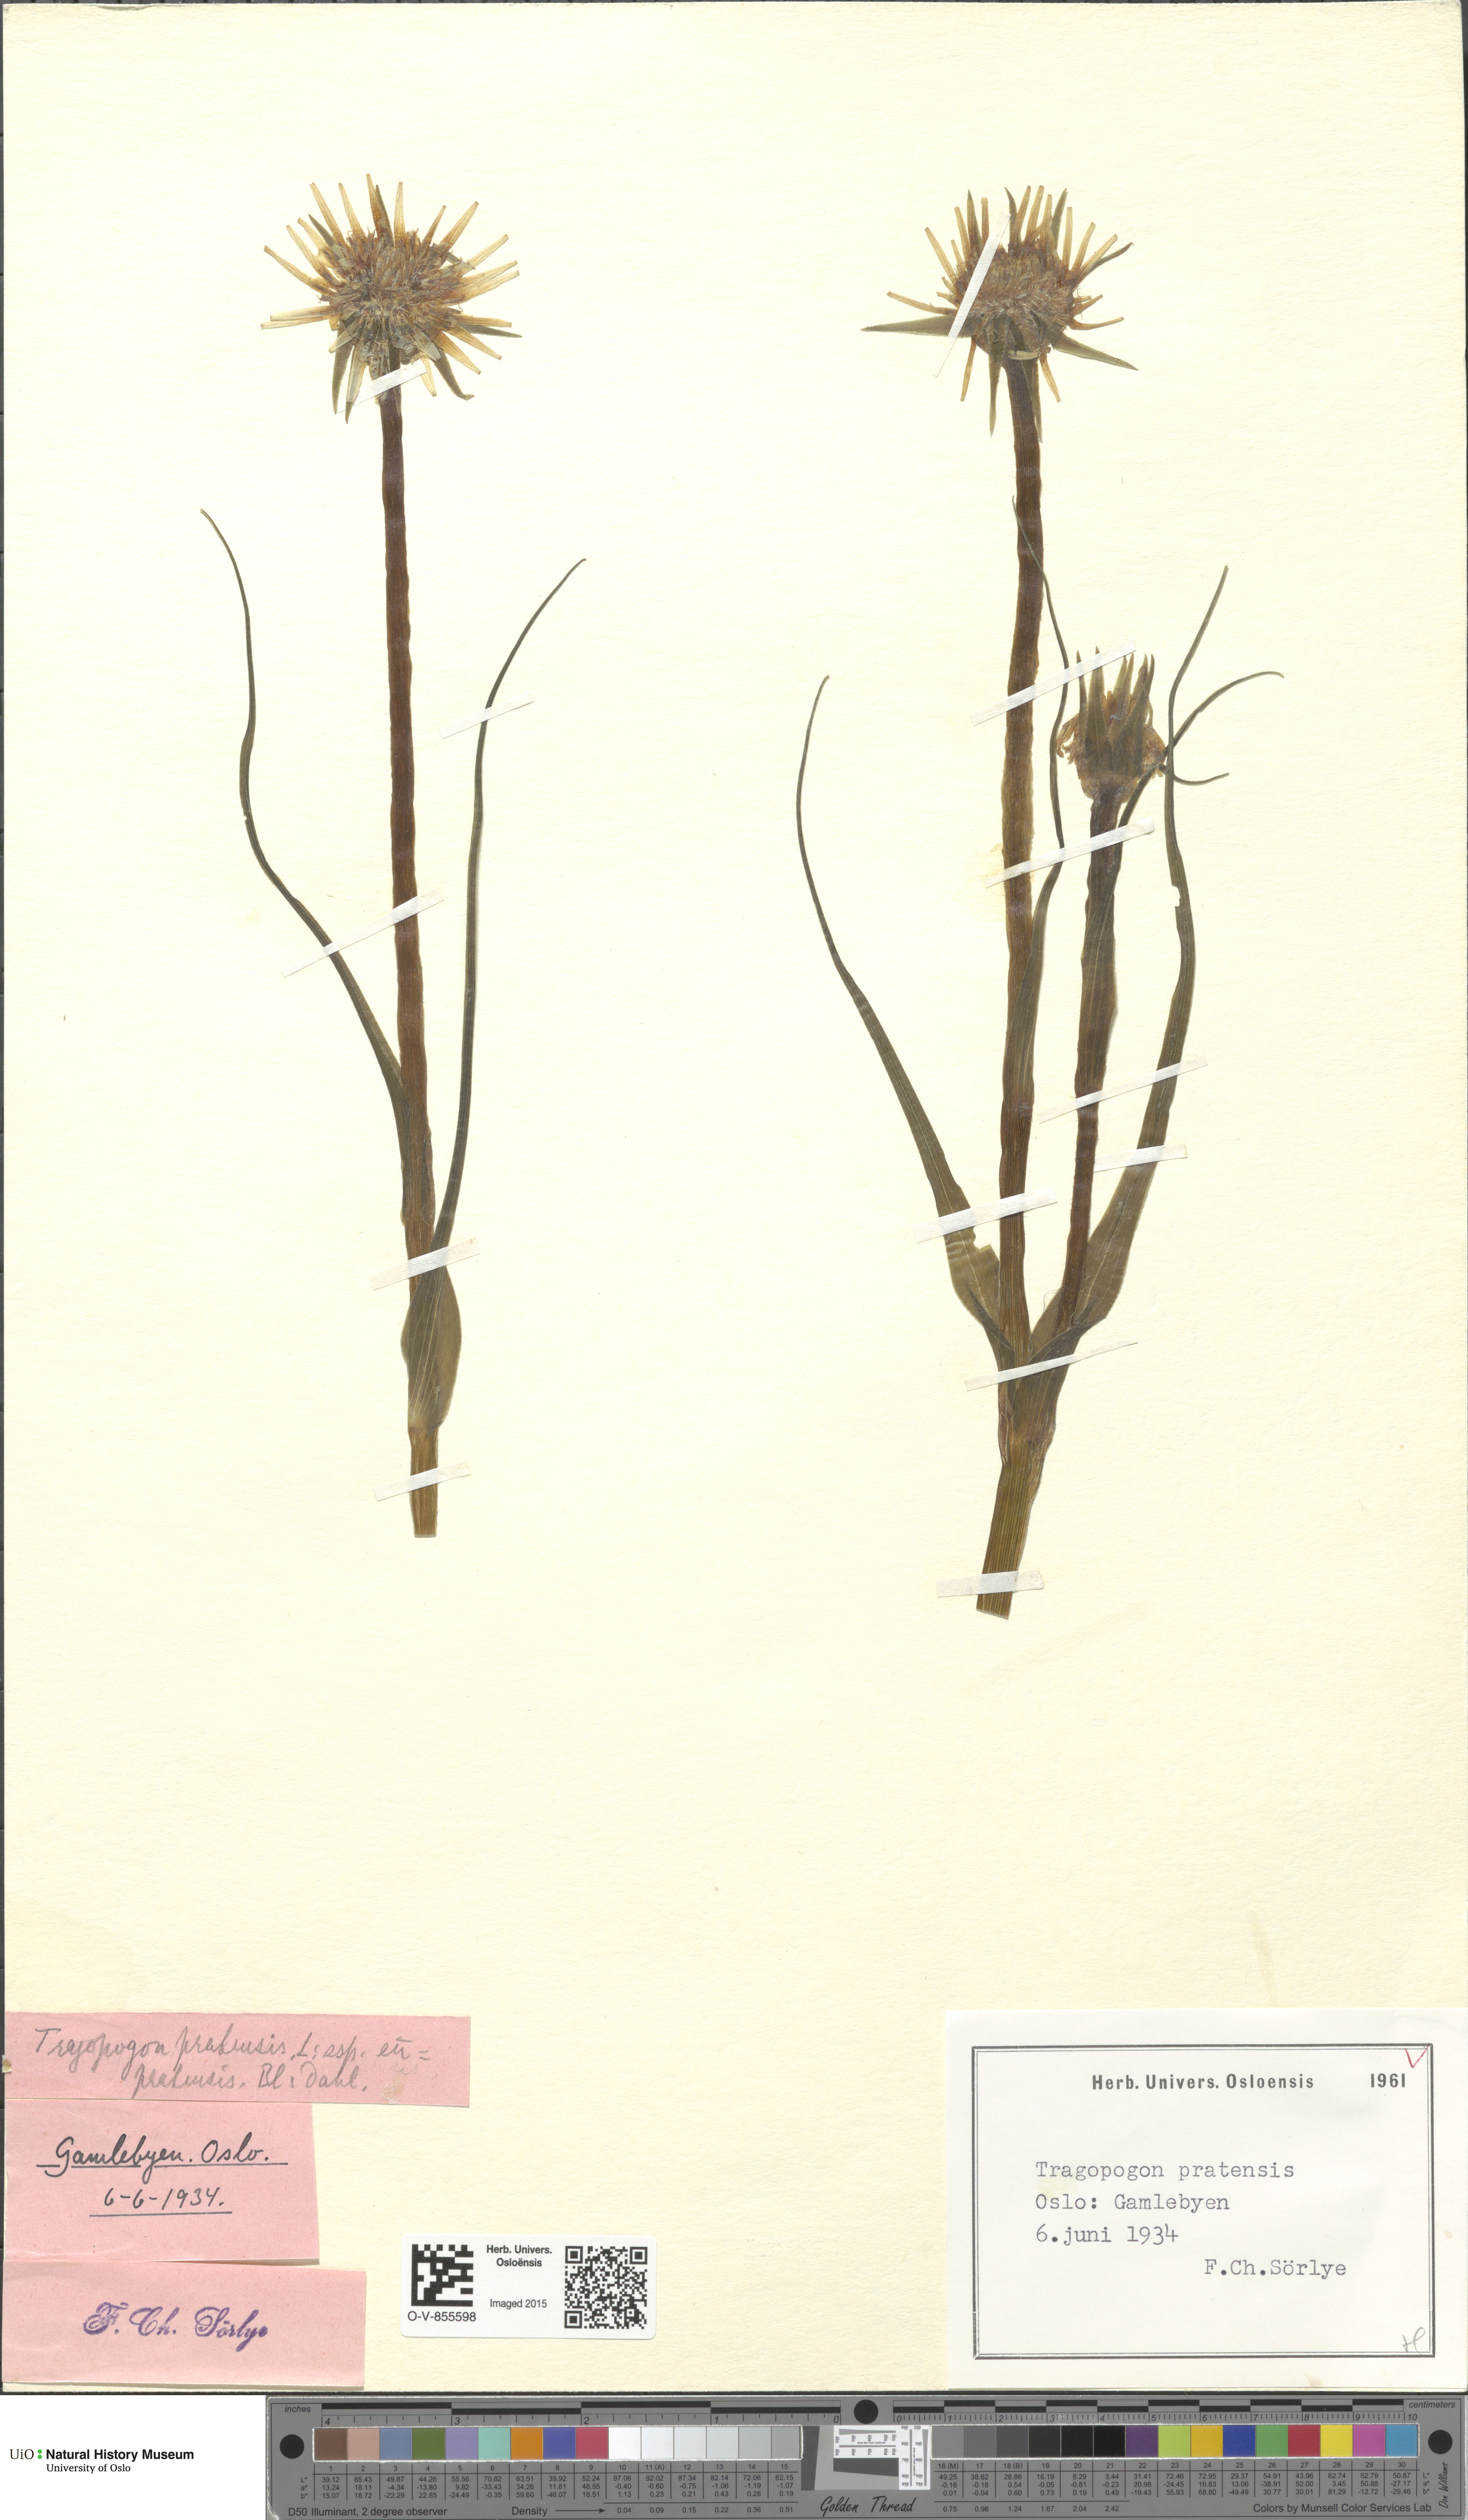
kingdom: Plantae
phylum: Tracheophyta
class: Magnoliopsida
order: Asterales
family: Asteraceae
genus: Tragopogon
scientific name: Tragopogon pratensis
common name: Goat's-beard
